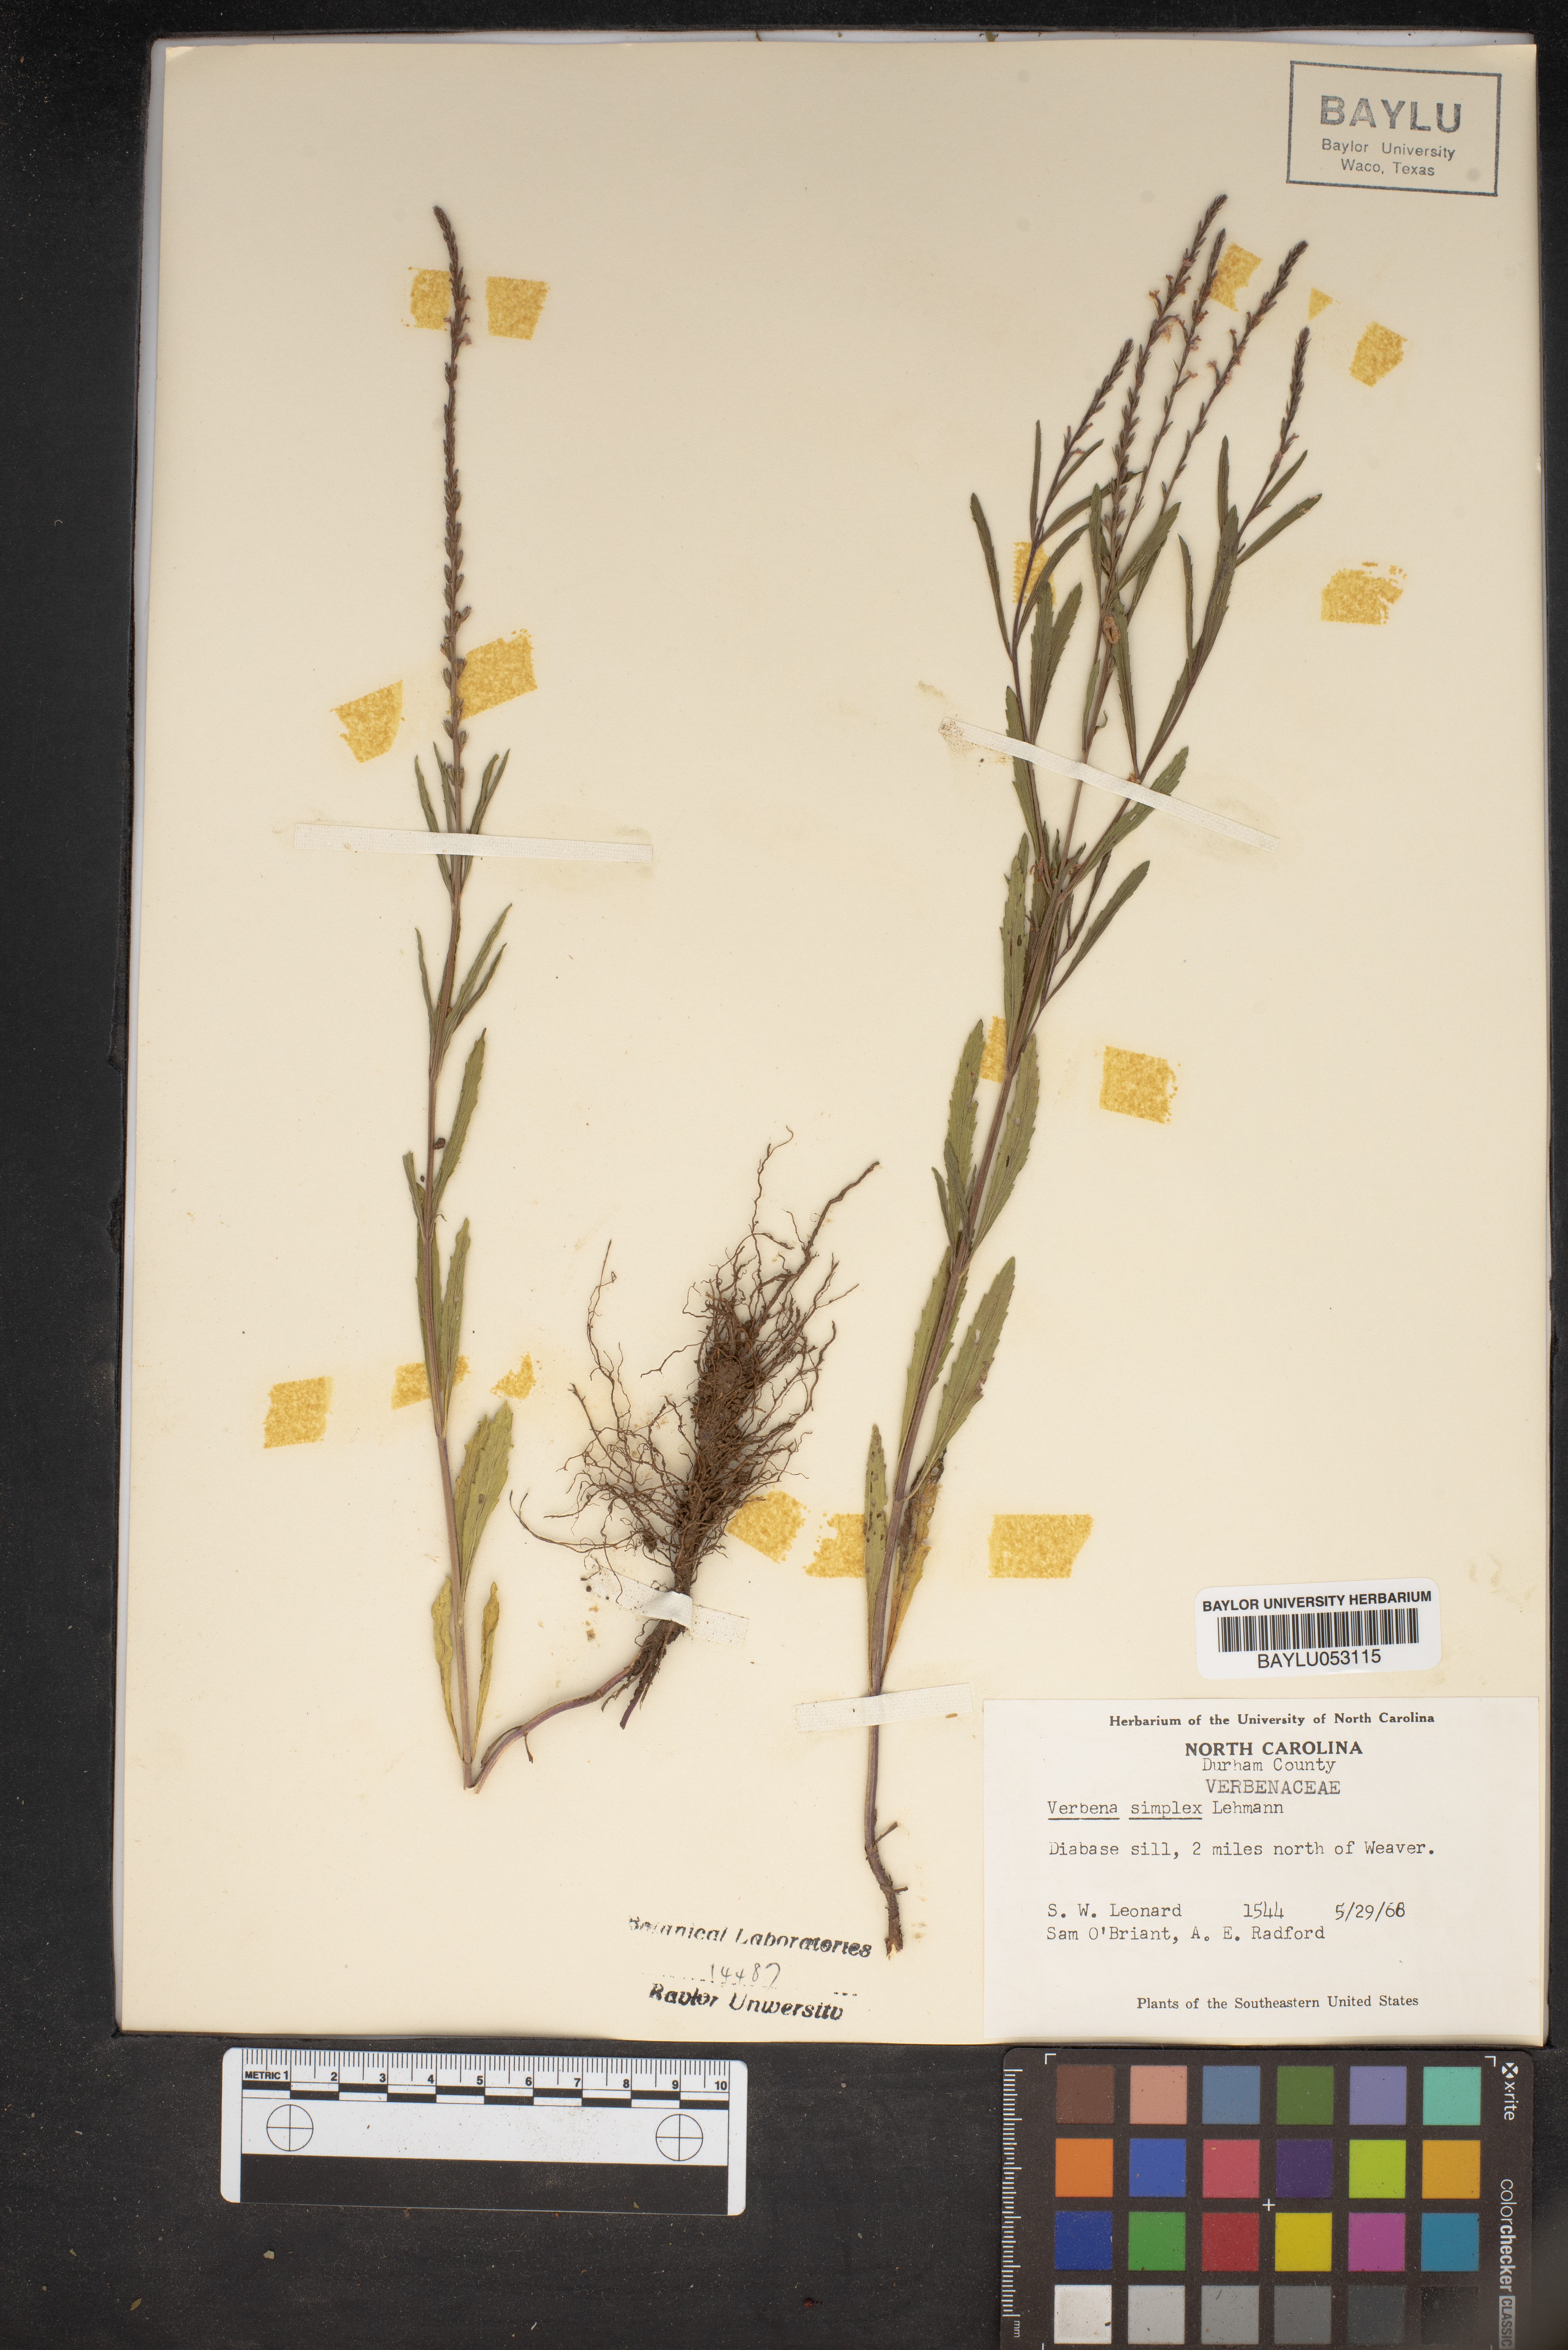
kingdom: Plantae
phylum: Tracheophyta
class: Magnoliopsida
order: Lamiales
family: Verbenaceae
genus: Verbena
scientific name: Verbena simplex
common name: Narrow-leaf vervain
